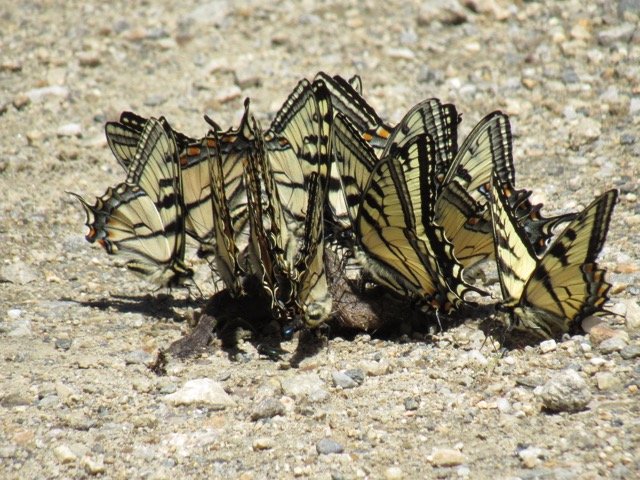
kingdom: Animalia
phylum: Arthropoda
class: Insecta
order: Lepidoptera
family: Papilionidae
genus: Pterourus
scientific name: Pterourus canadensis
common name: Canadian Tiger Swallowtail
